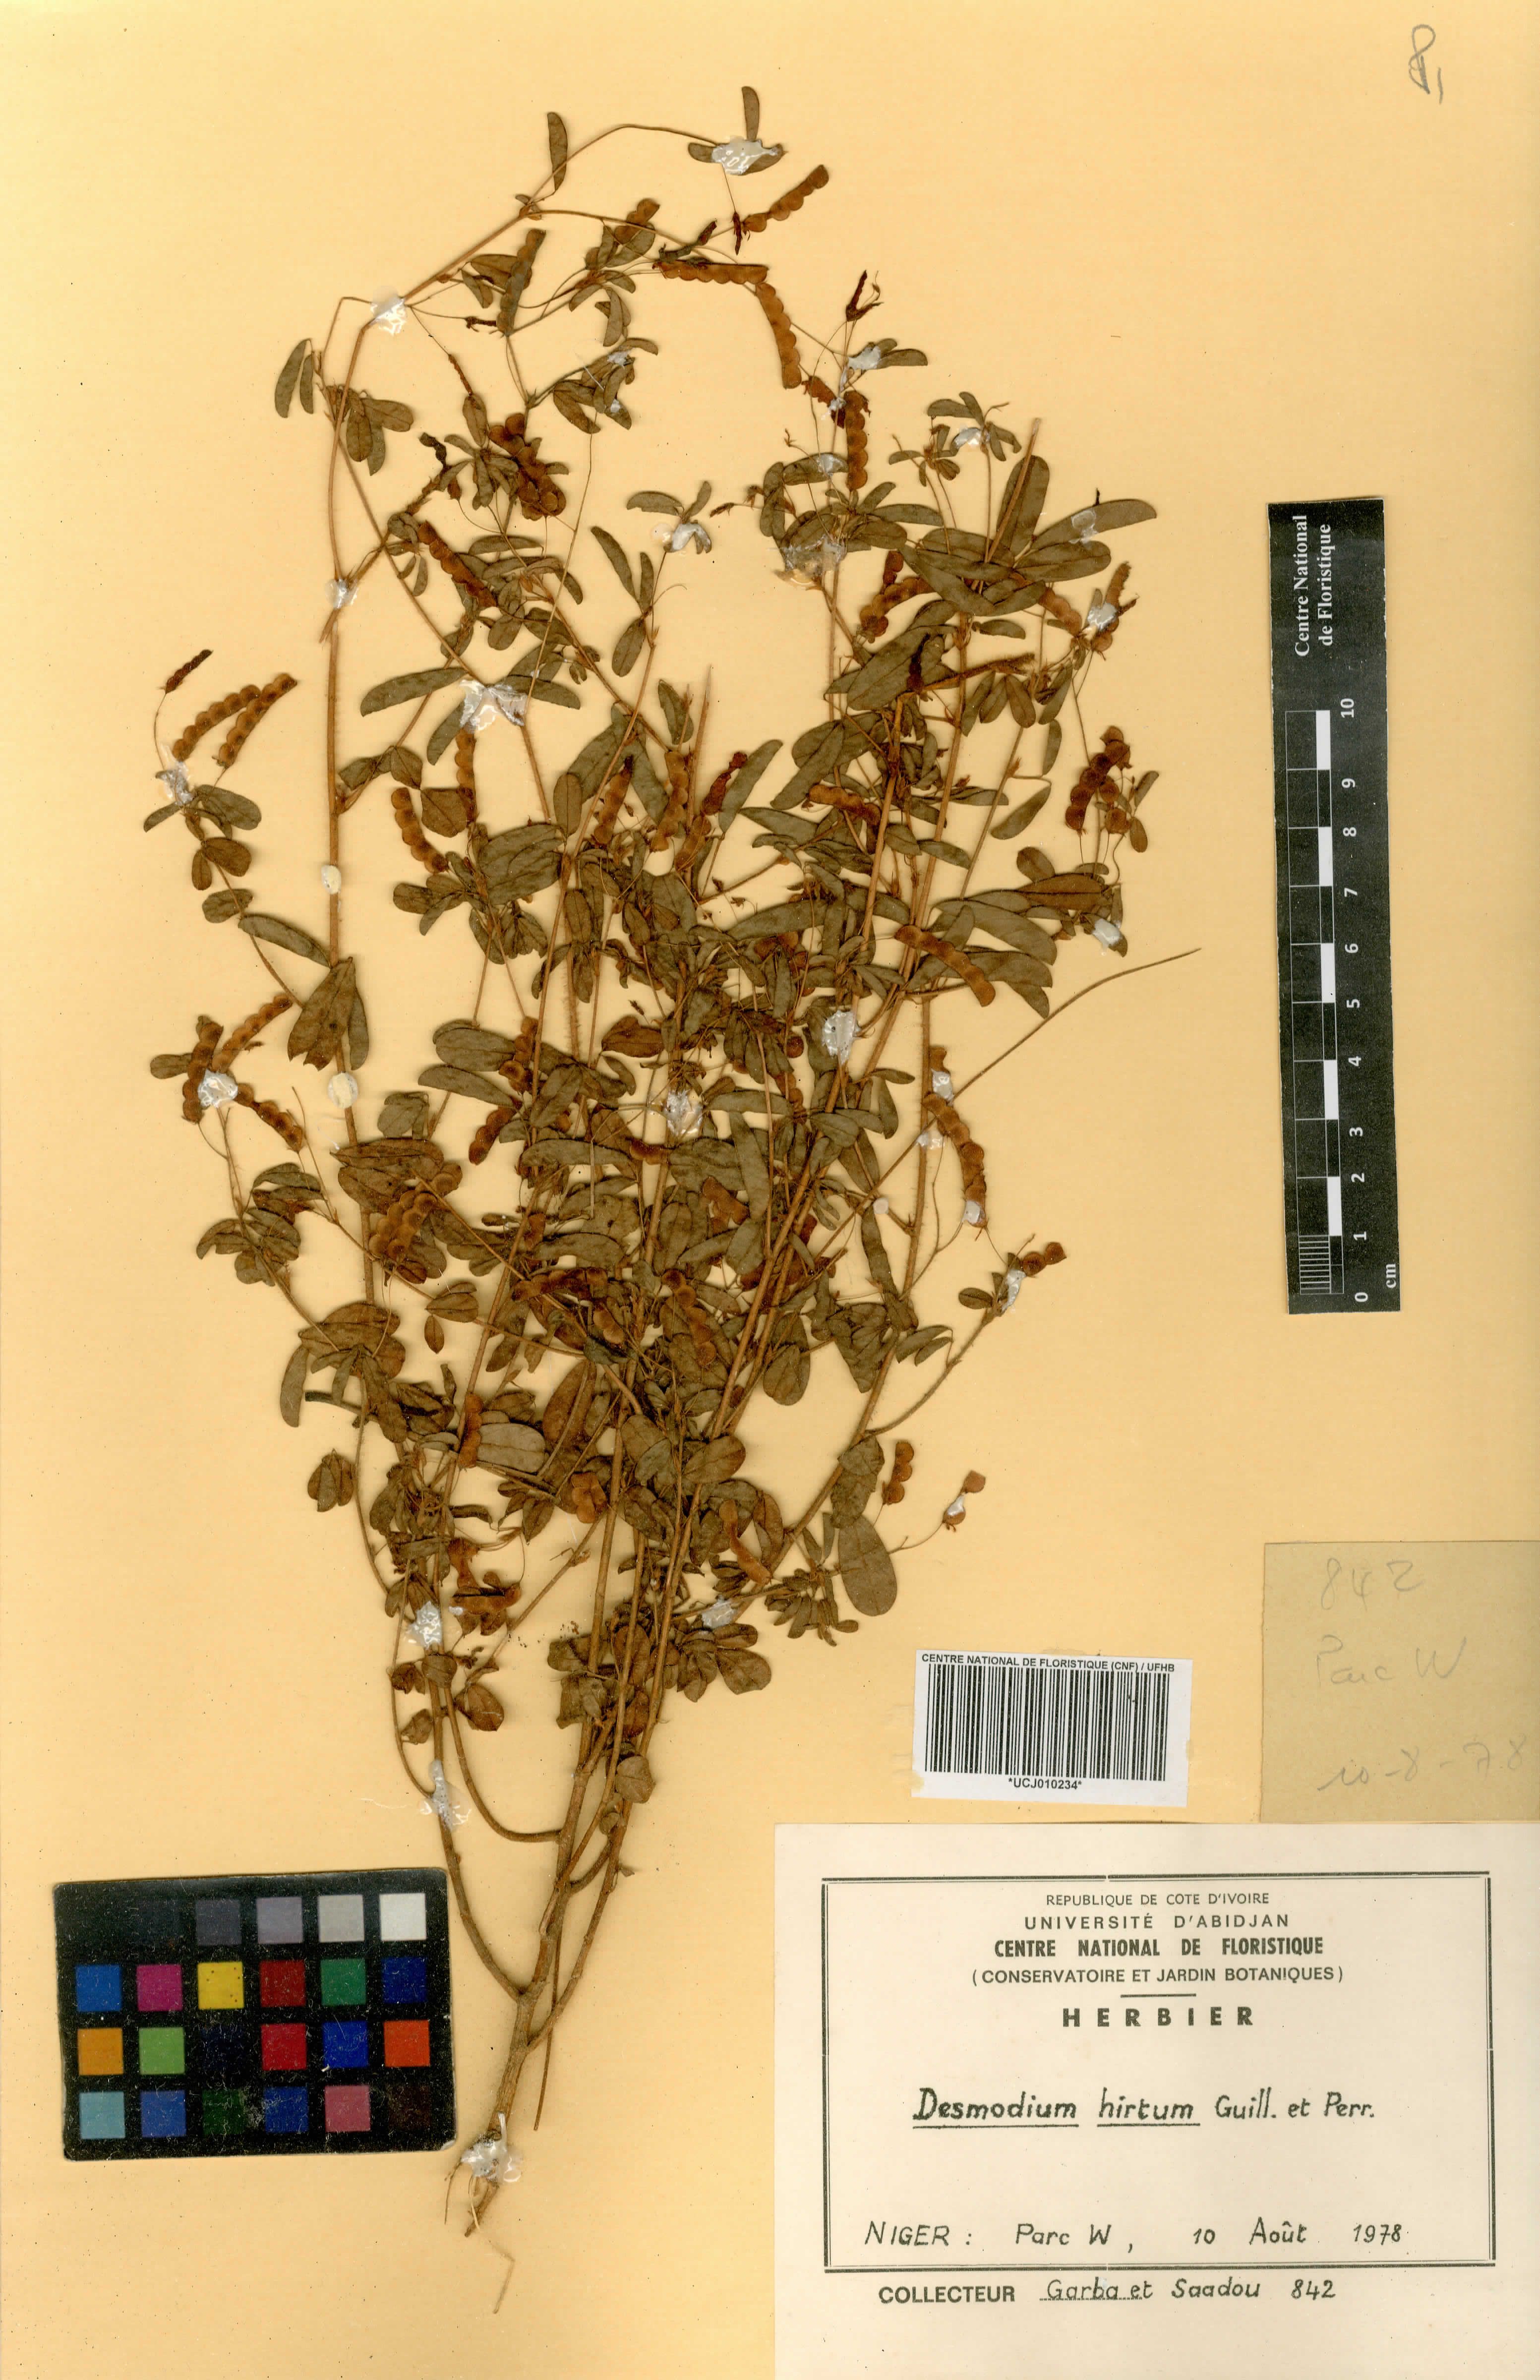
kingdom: Plantae
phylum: Tracheophyta
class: Magnoliopsida
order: Fabales
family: Fabaceae
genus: Grona
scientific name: Grona hirta
